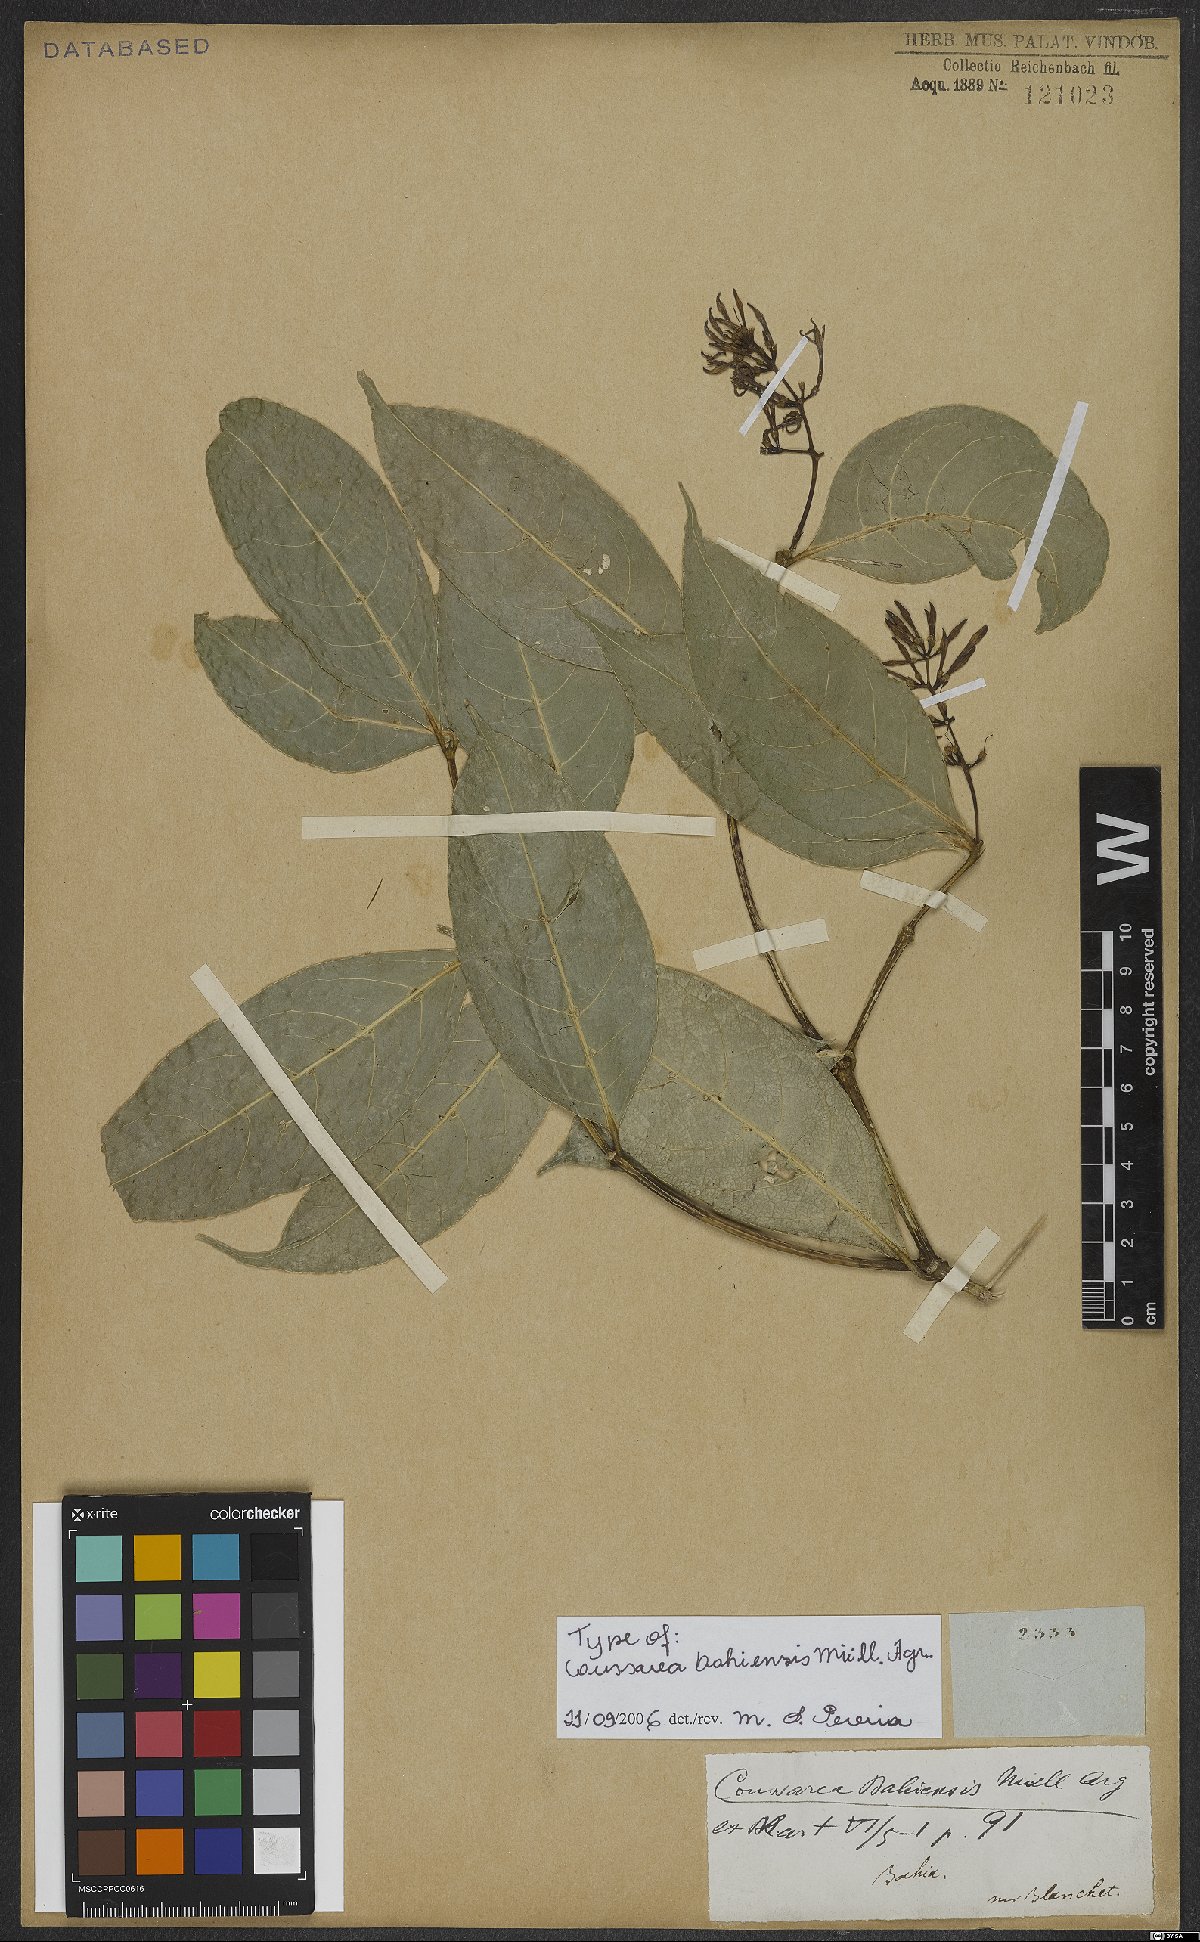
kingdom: Plantae
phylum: Tracheophyta
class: Magnoliopsida
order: Gentianales
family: Rubiaceae
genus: Coussarea
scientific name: Coussarea bahiensis
